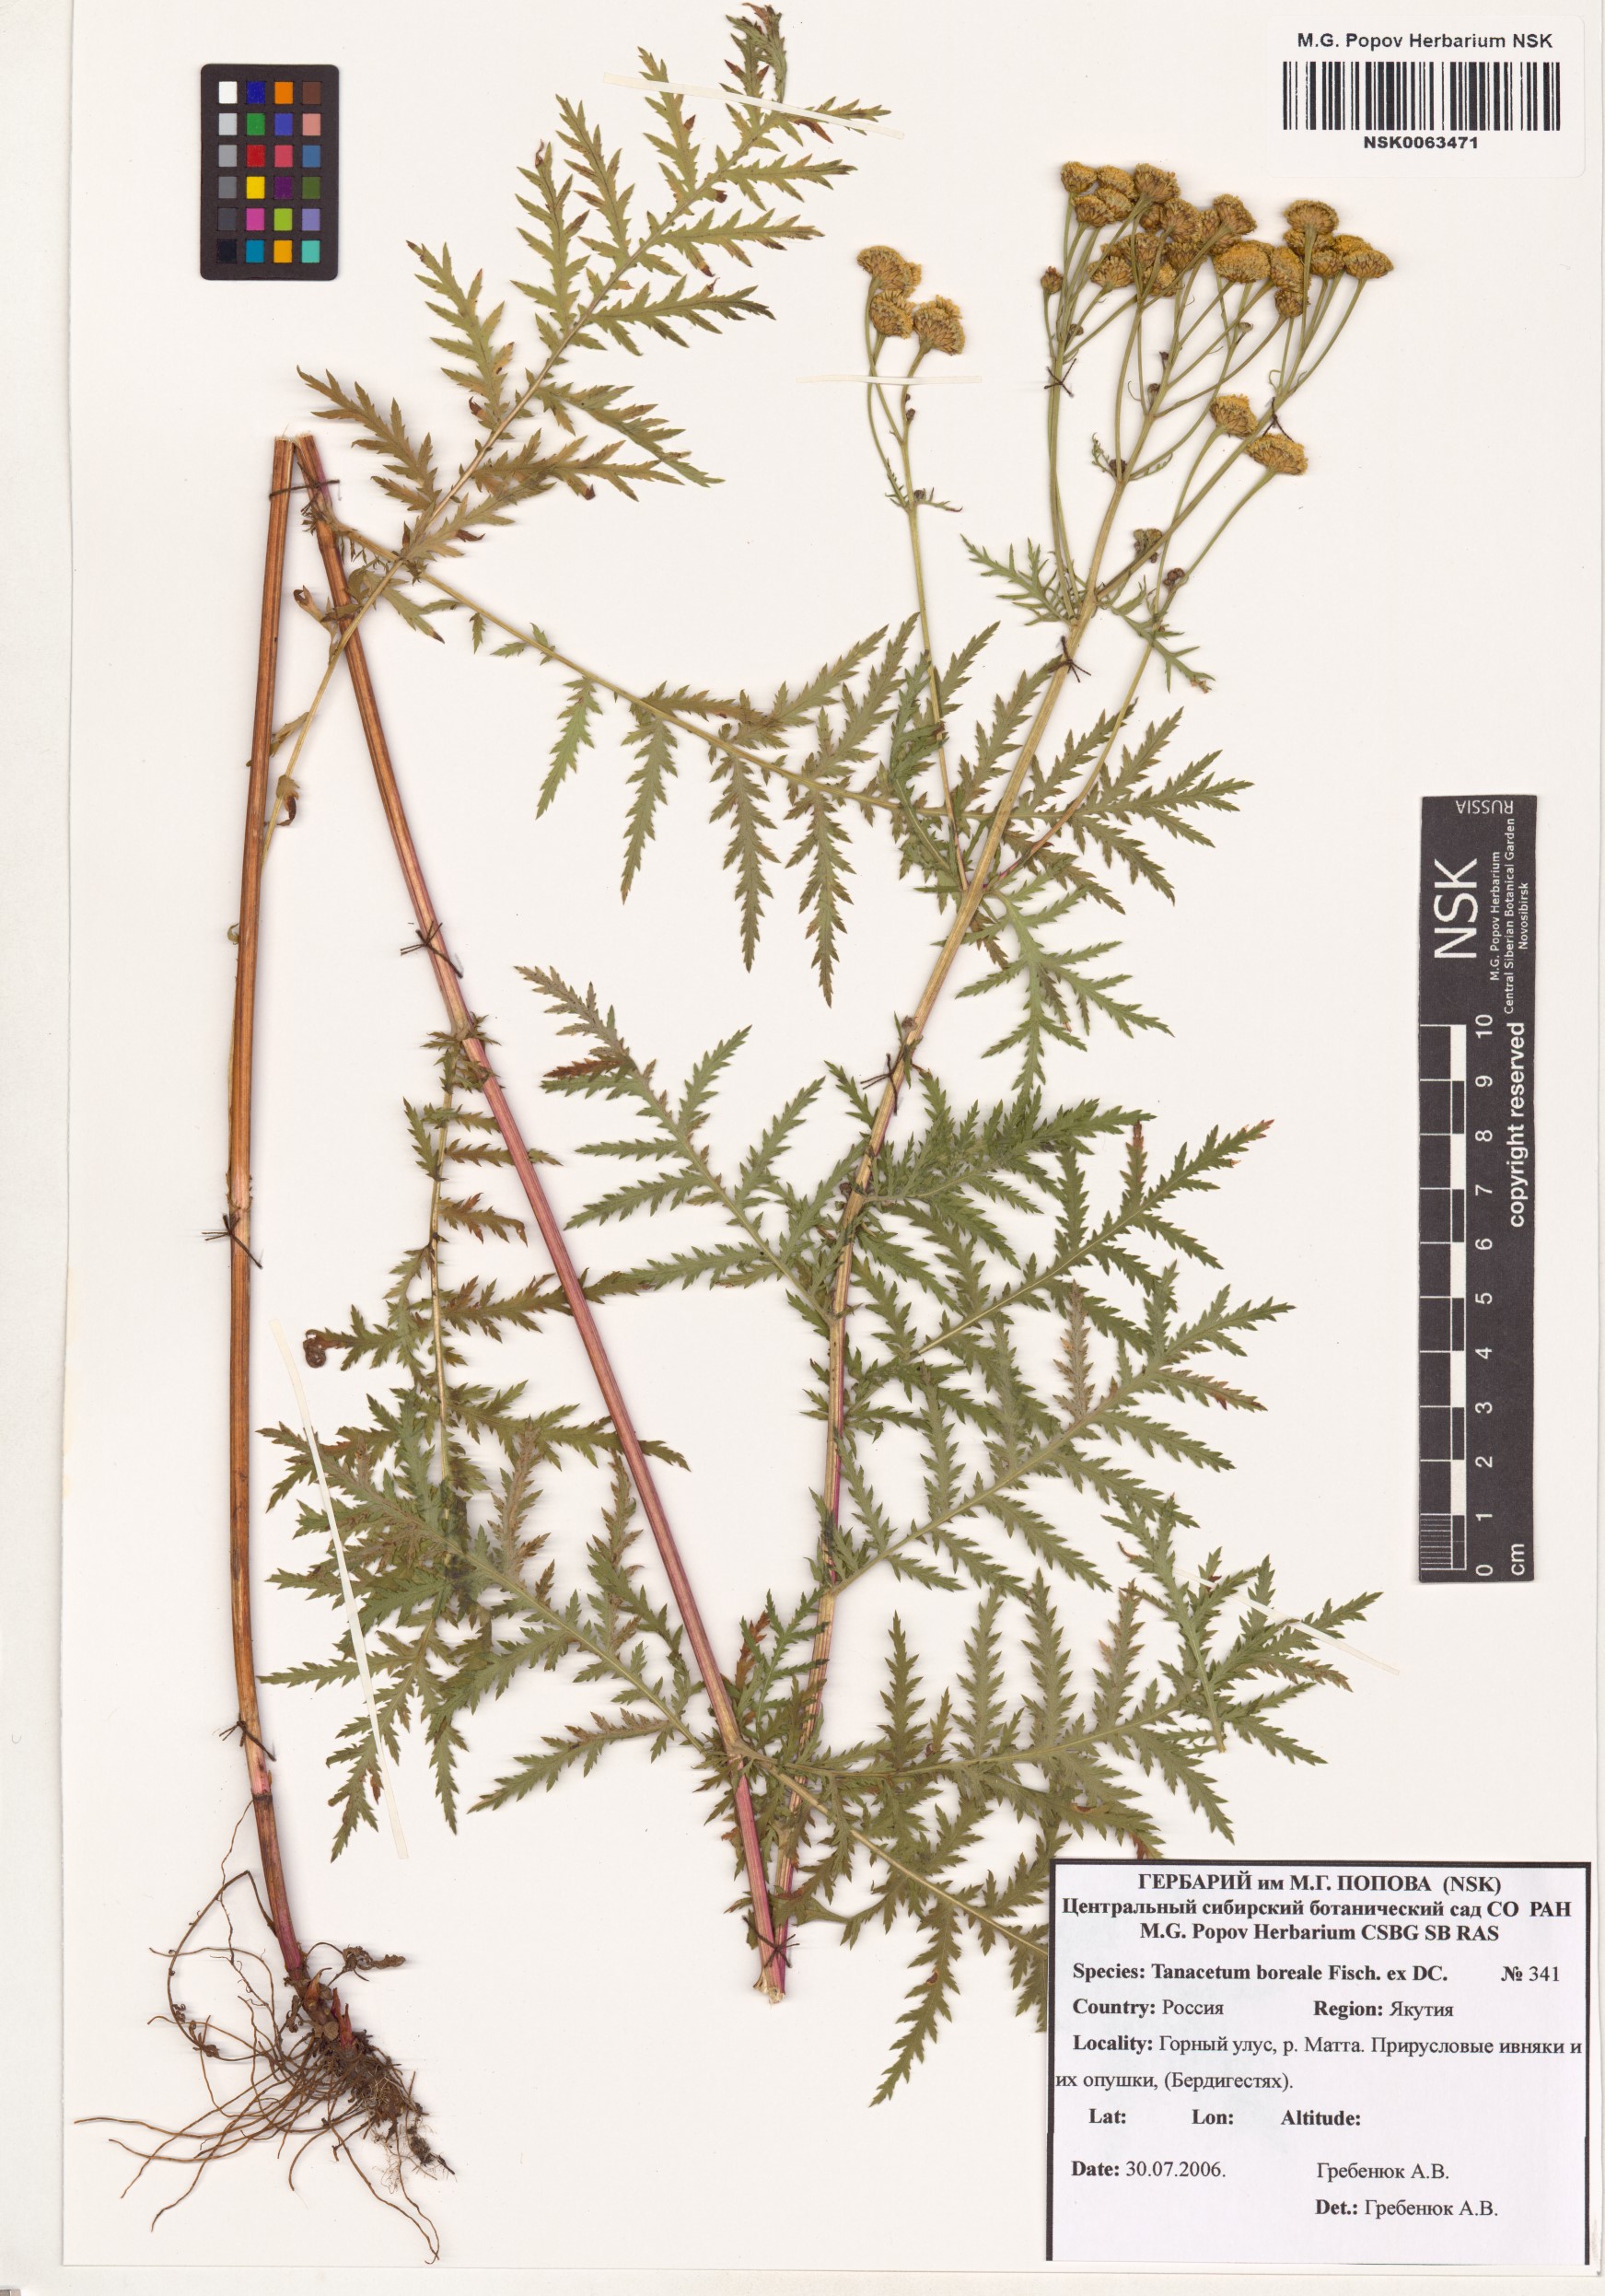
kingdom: Plantae
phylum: Tracheophyta
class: Magnoliopsida
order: Asterales
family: Asteraceae
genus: Tanacetum
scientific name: Tanacetum vulgare
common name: Common tansy
